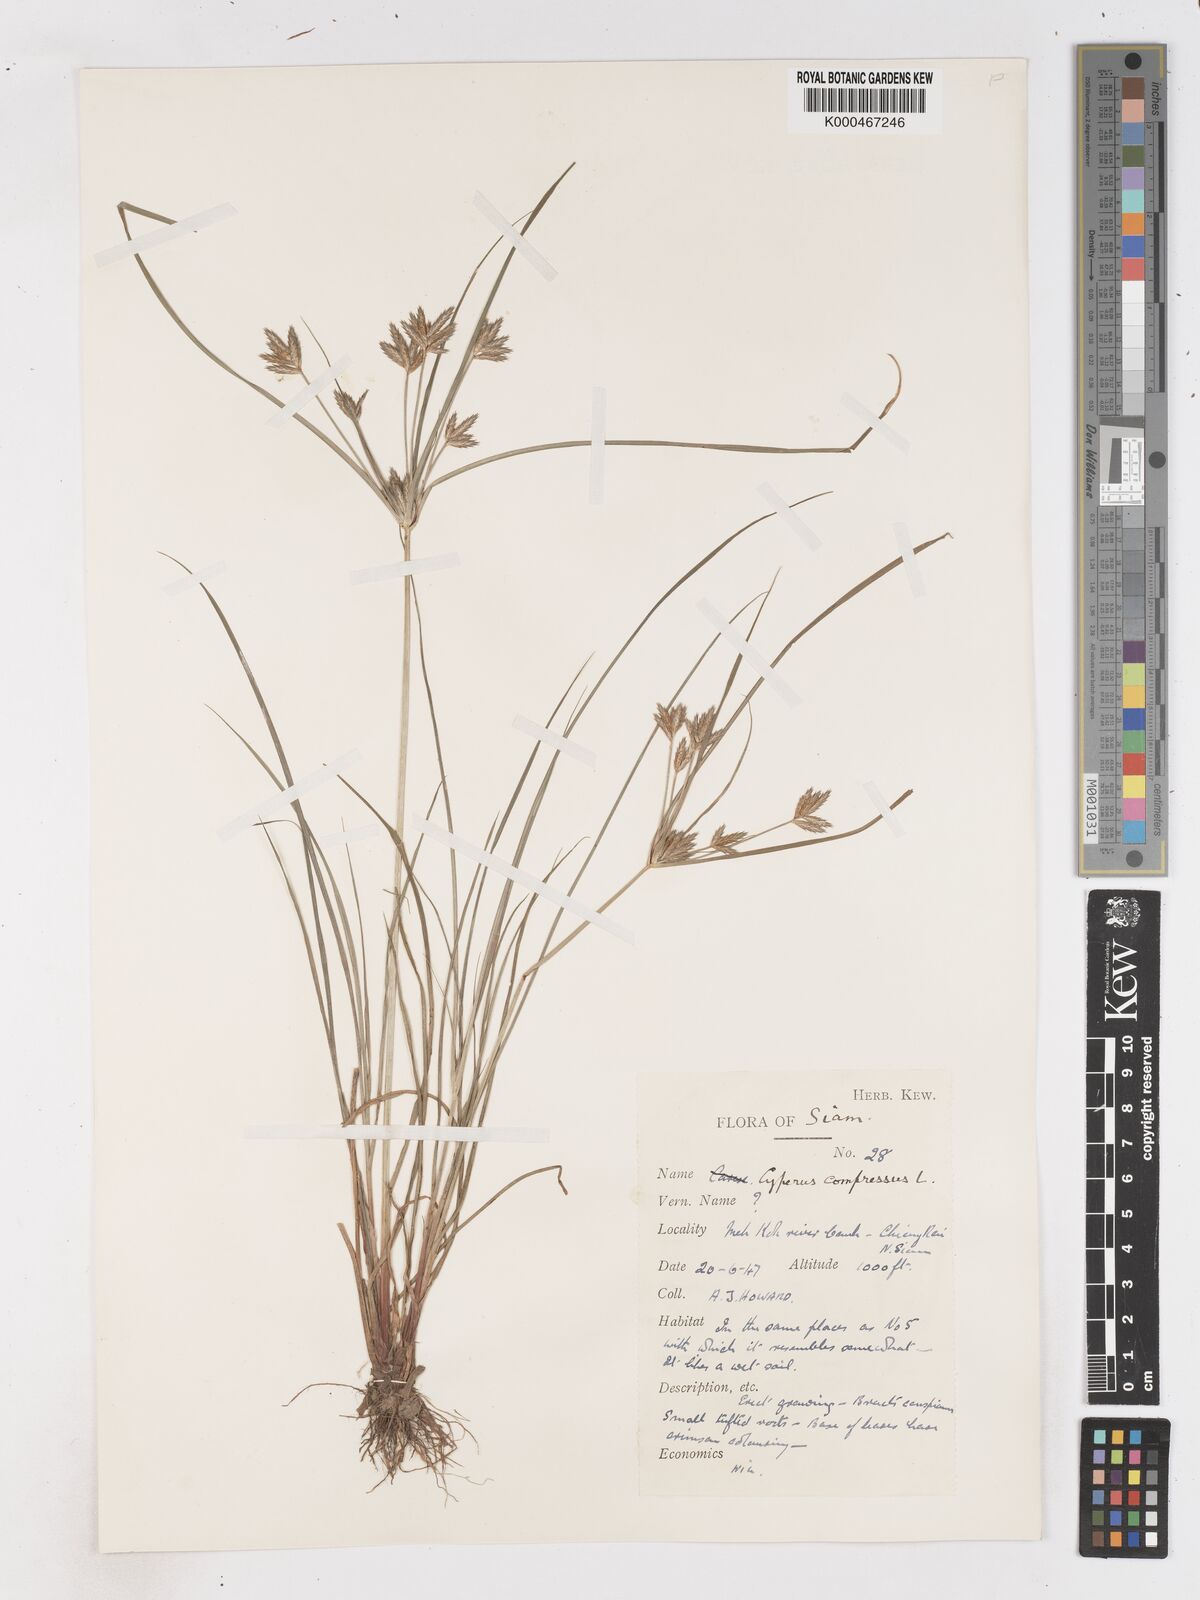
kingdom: Plantae
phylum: Tracheophyta
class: Liliopsida
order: Poales
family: Cyperaceae
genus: Cyperus
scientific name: Cyperus compressus
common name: Poorland flatsedge
